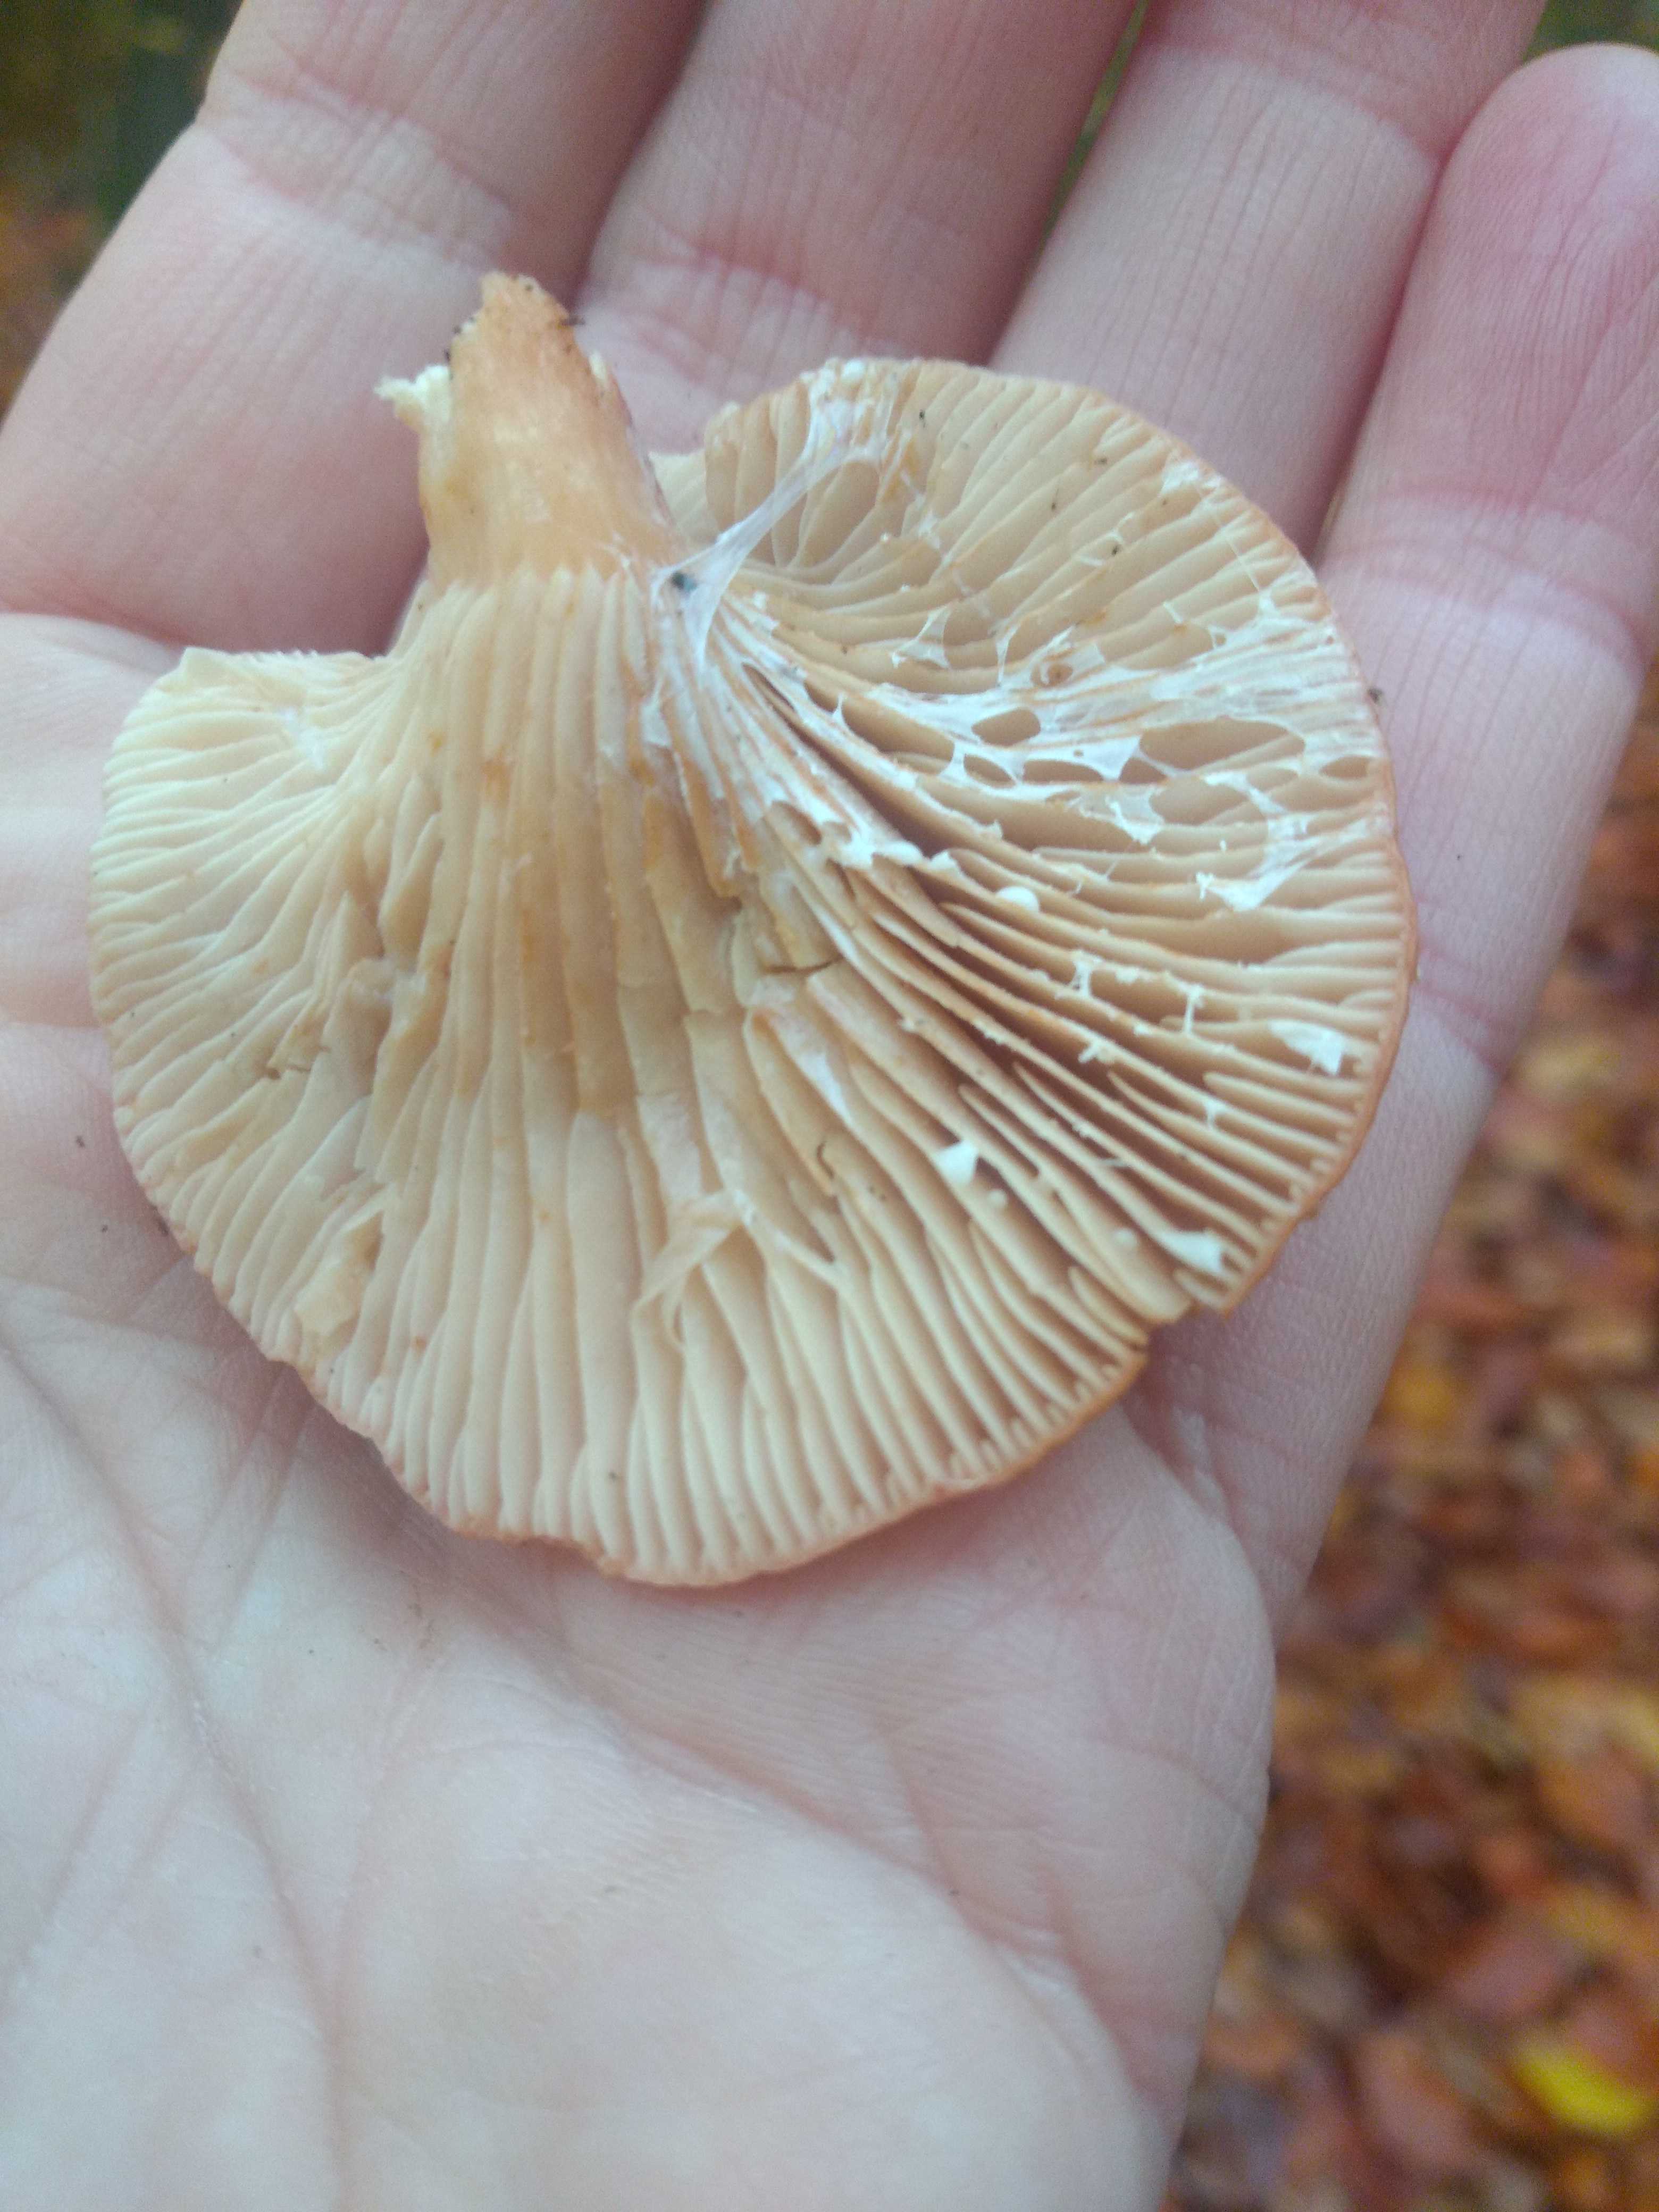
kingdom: Fungi
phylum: Basidiomycota
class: Agaricomycetes
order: Russulales
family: Russulaceae
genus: Lactarius
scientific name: Lactarius subdulcis
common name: sødlig mælkehat
